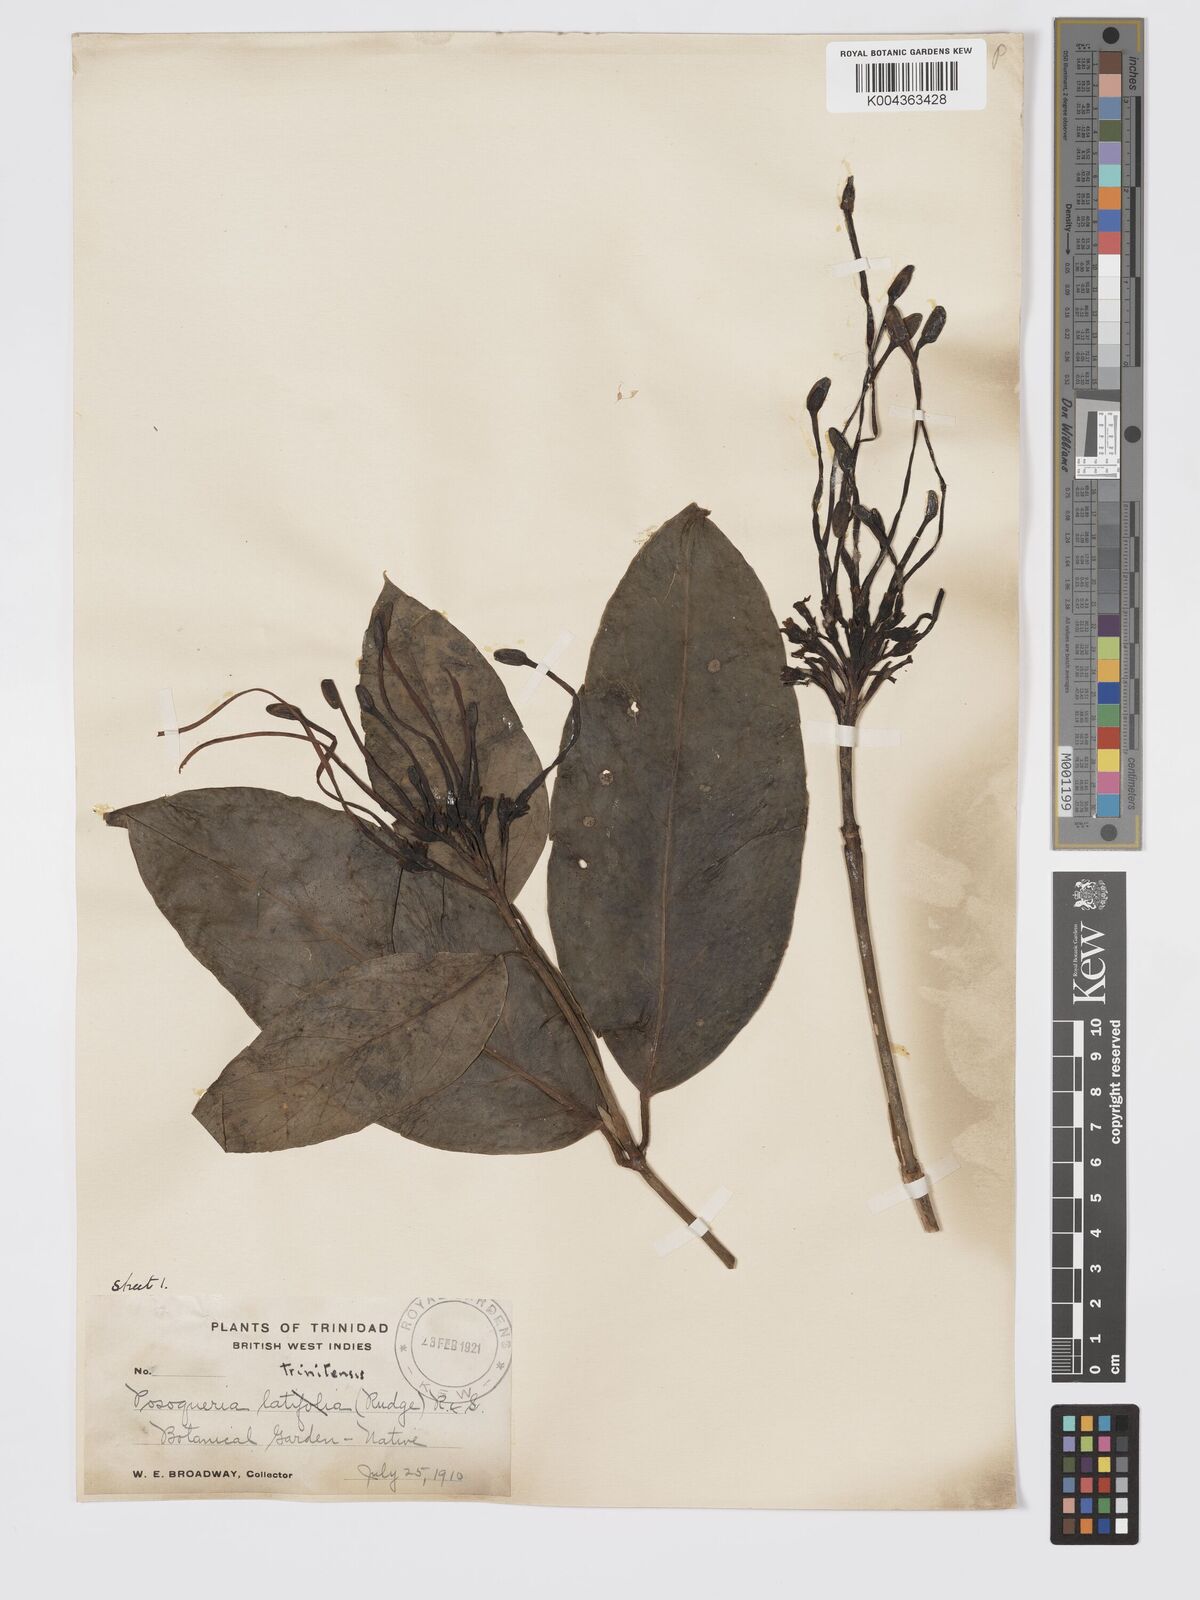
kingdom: Plantae
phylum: Tracheophyta
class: Magnoliopsida
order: Gentianales
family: Rubiaceae
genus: Posoqueria
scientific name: Posoqueria trinitatis
